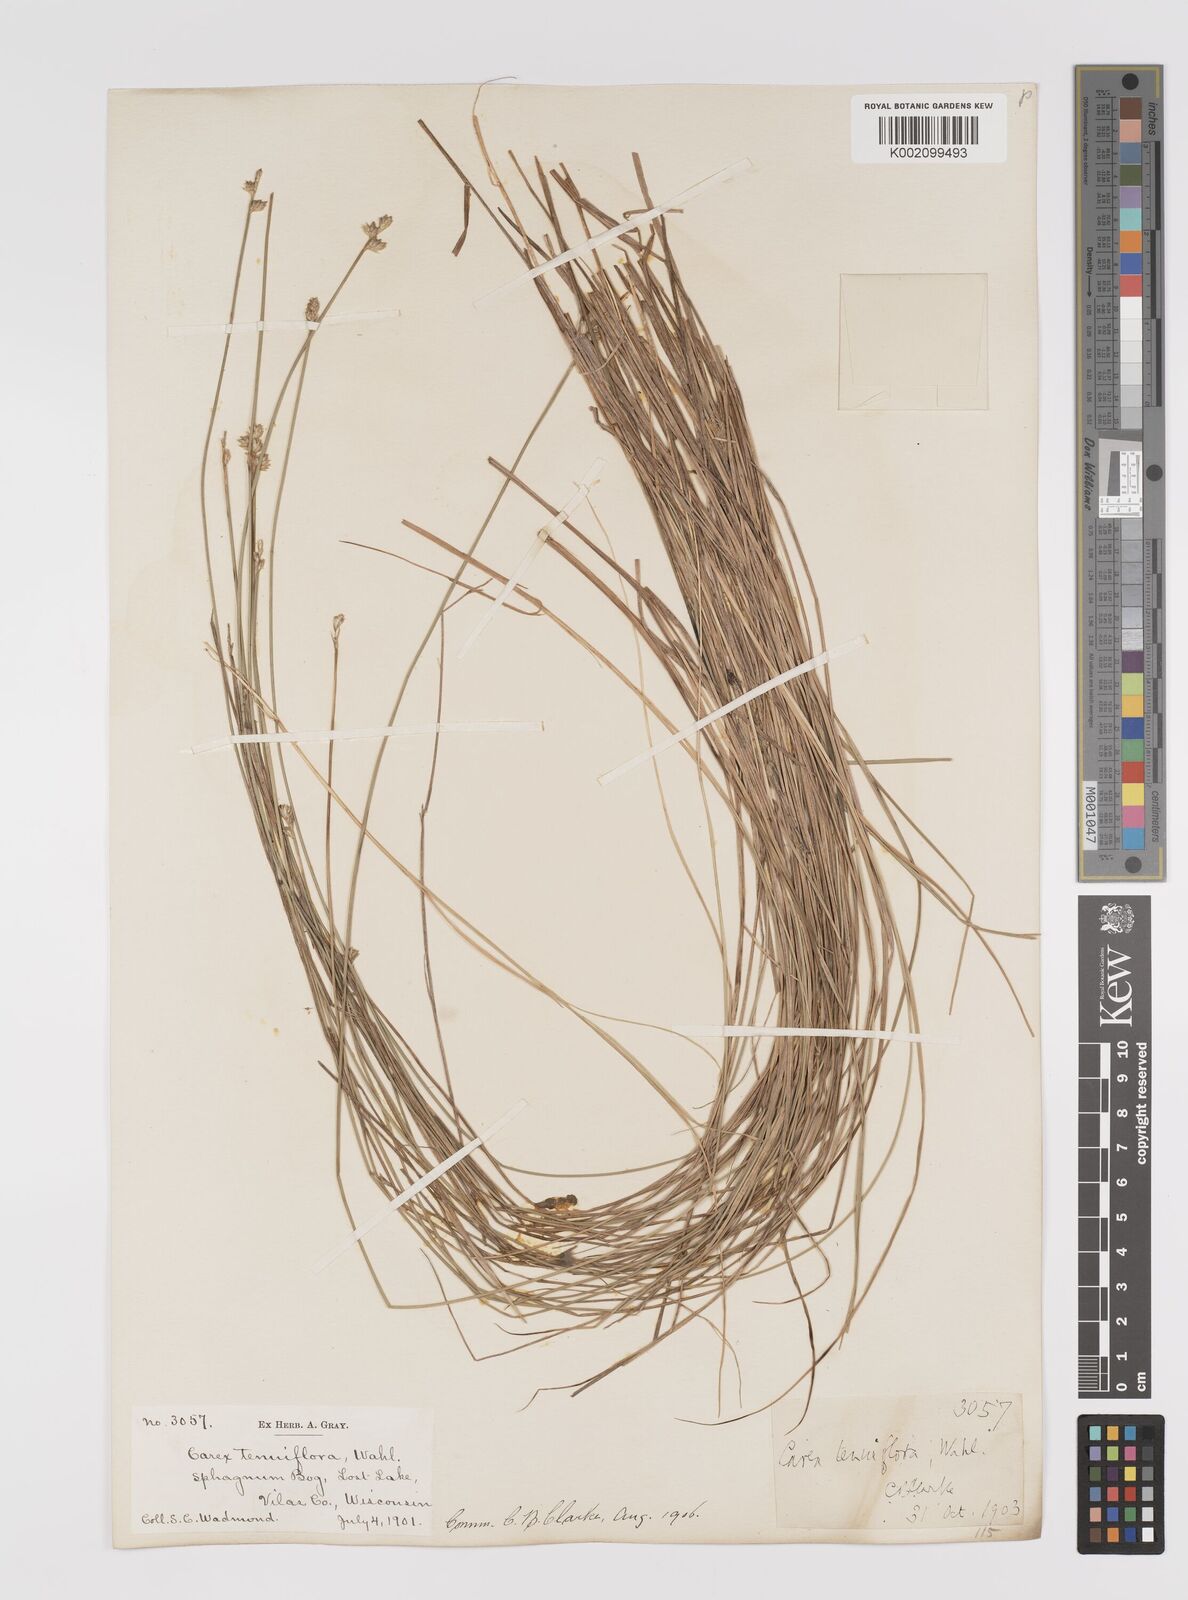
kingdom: Plantae
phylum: Tracheophyta
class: Liliopsida
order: Poales
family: Cyperaceae
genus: Carex
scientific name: Carex tenuiflora
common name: Sparse-flowered sedge
